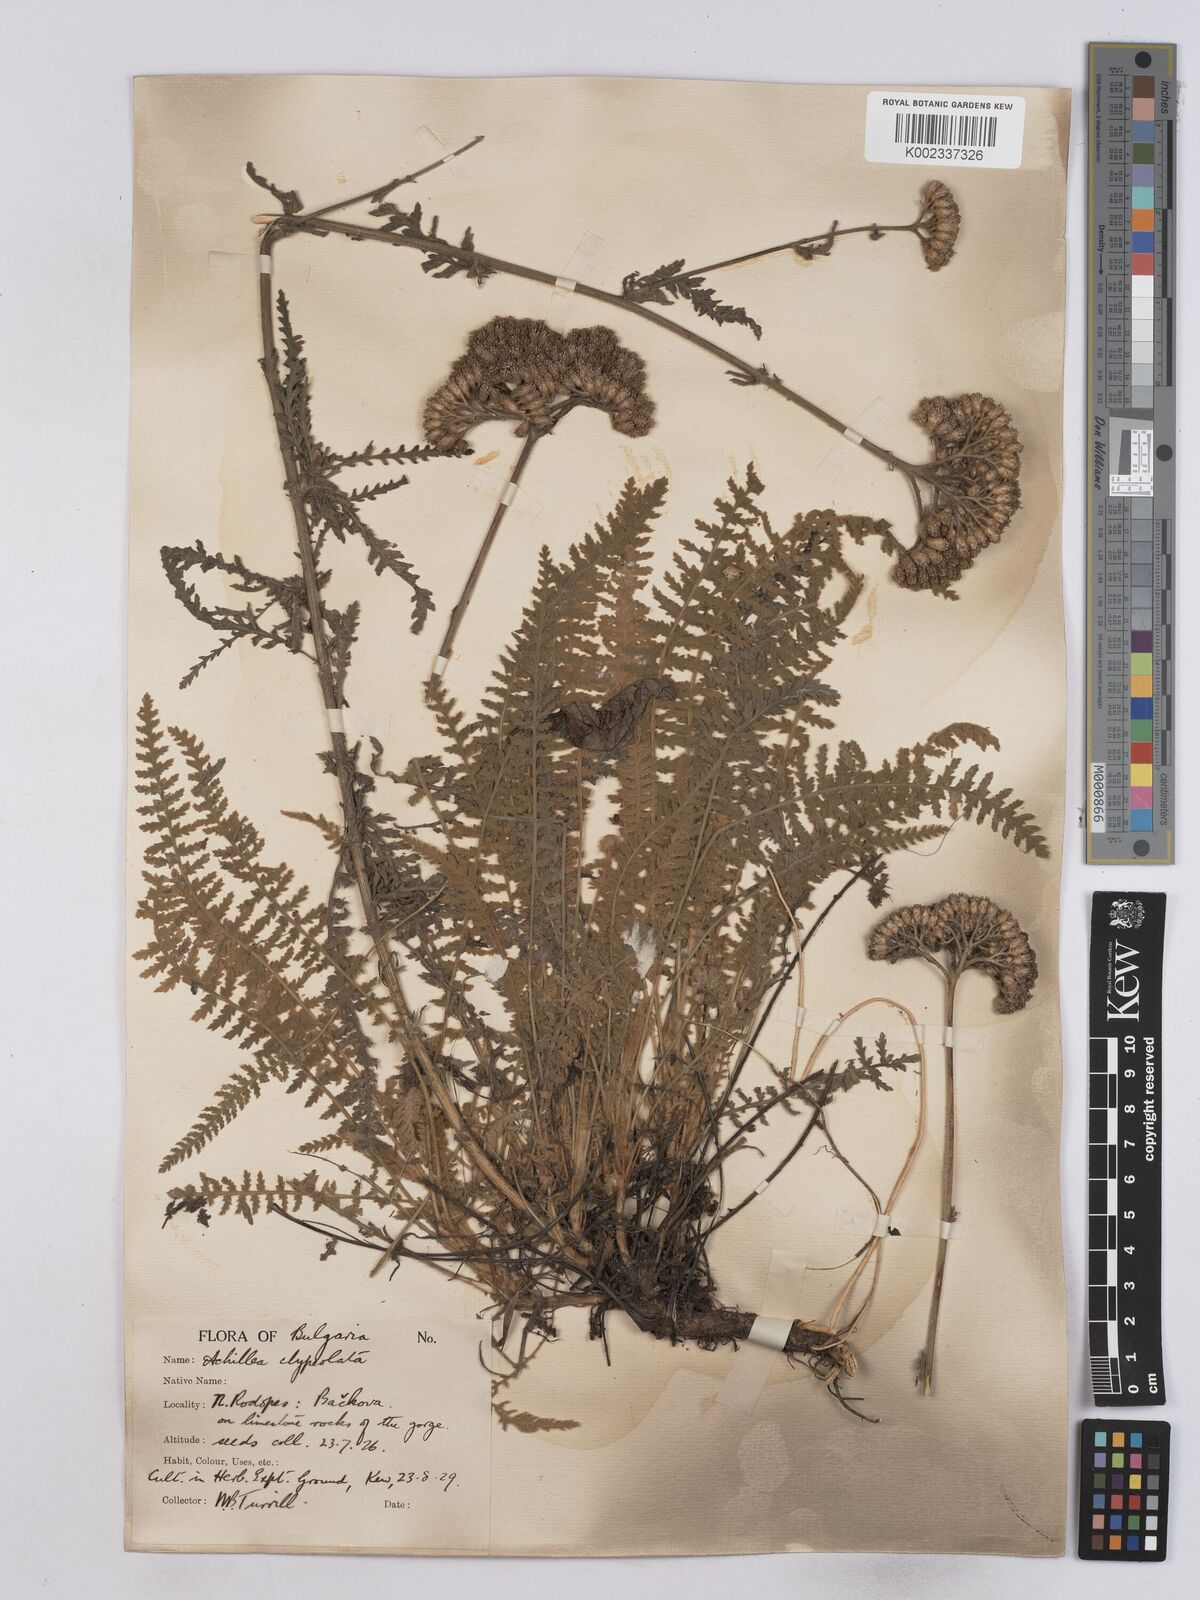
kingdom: Plantae
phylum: Tracheophyta
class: Magnoliopsida
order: Asterales
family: Asteraceae
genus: Achillea
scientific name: Achillea clypeolata
